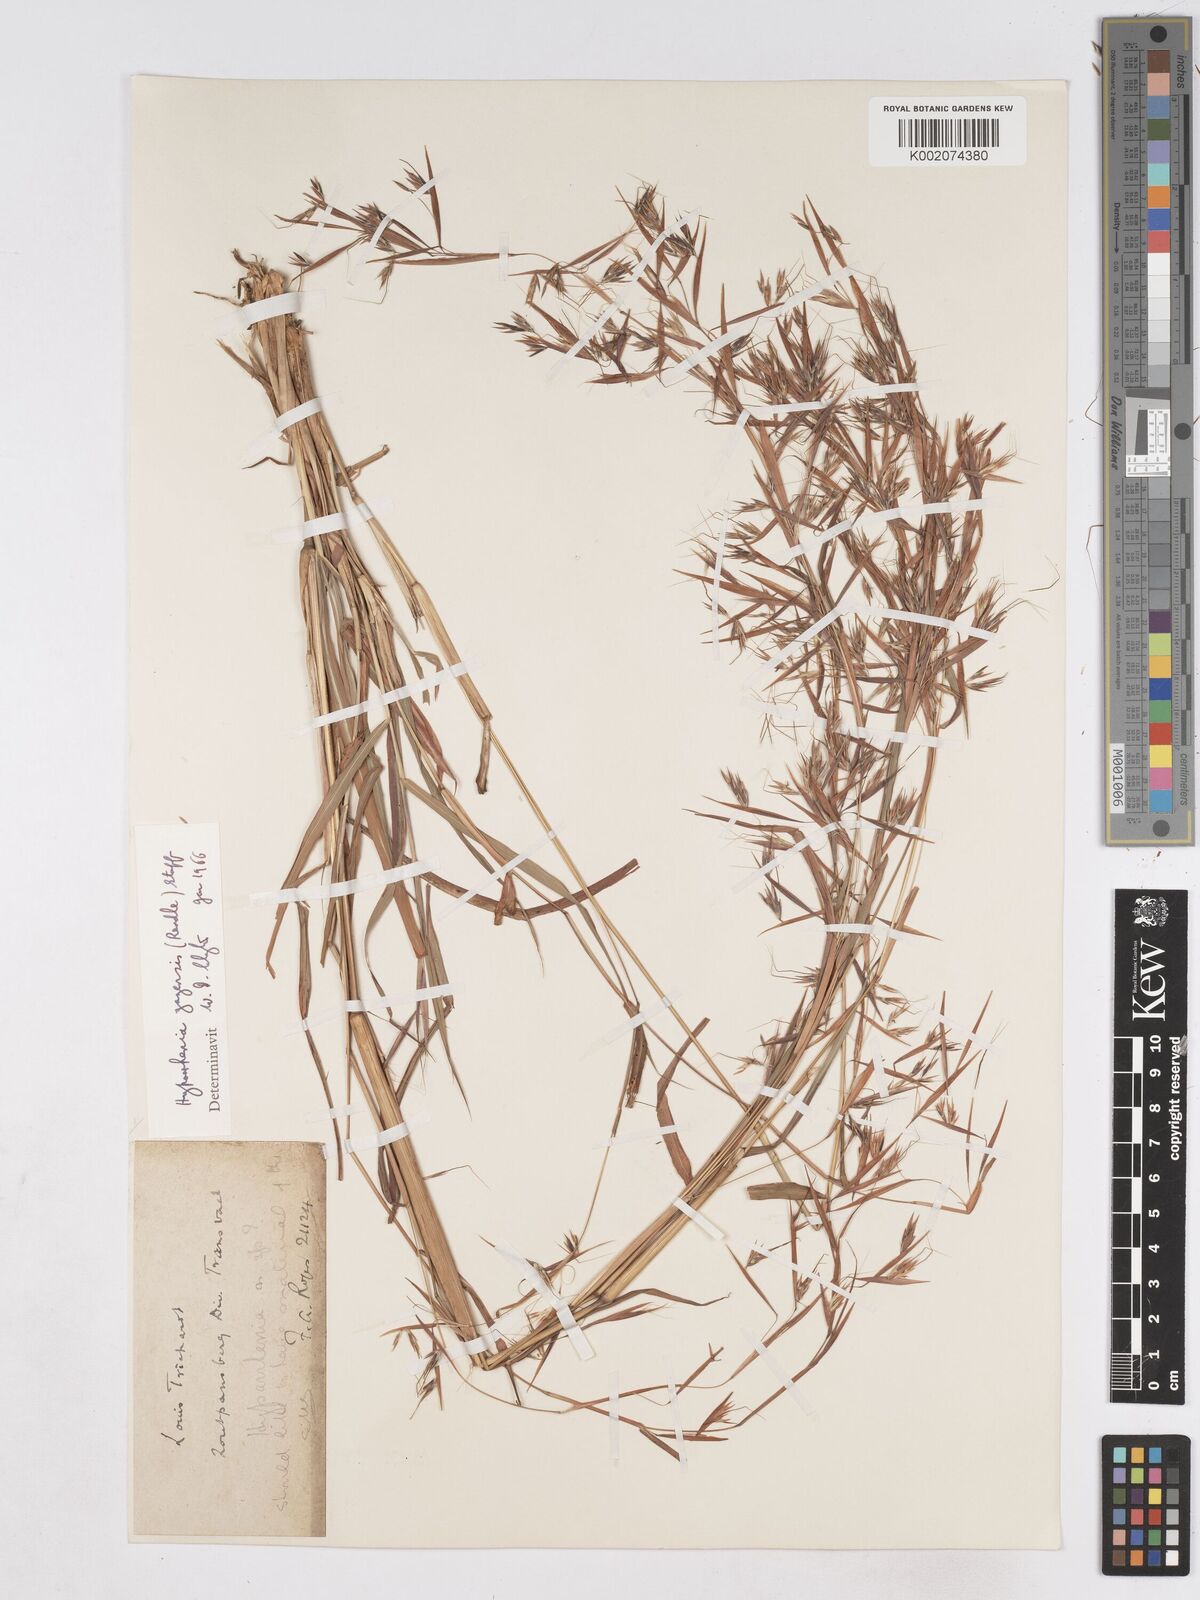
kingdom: Plantae
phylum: Tracheophyta
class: Liliopsida
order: Poales
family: Poaceae
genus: Hyparrhenia
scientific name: Hyparrhenia gazensis
